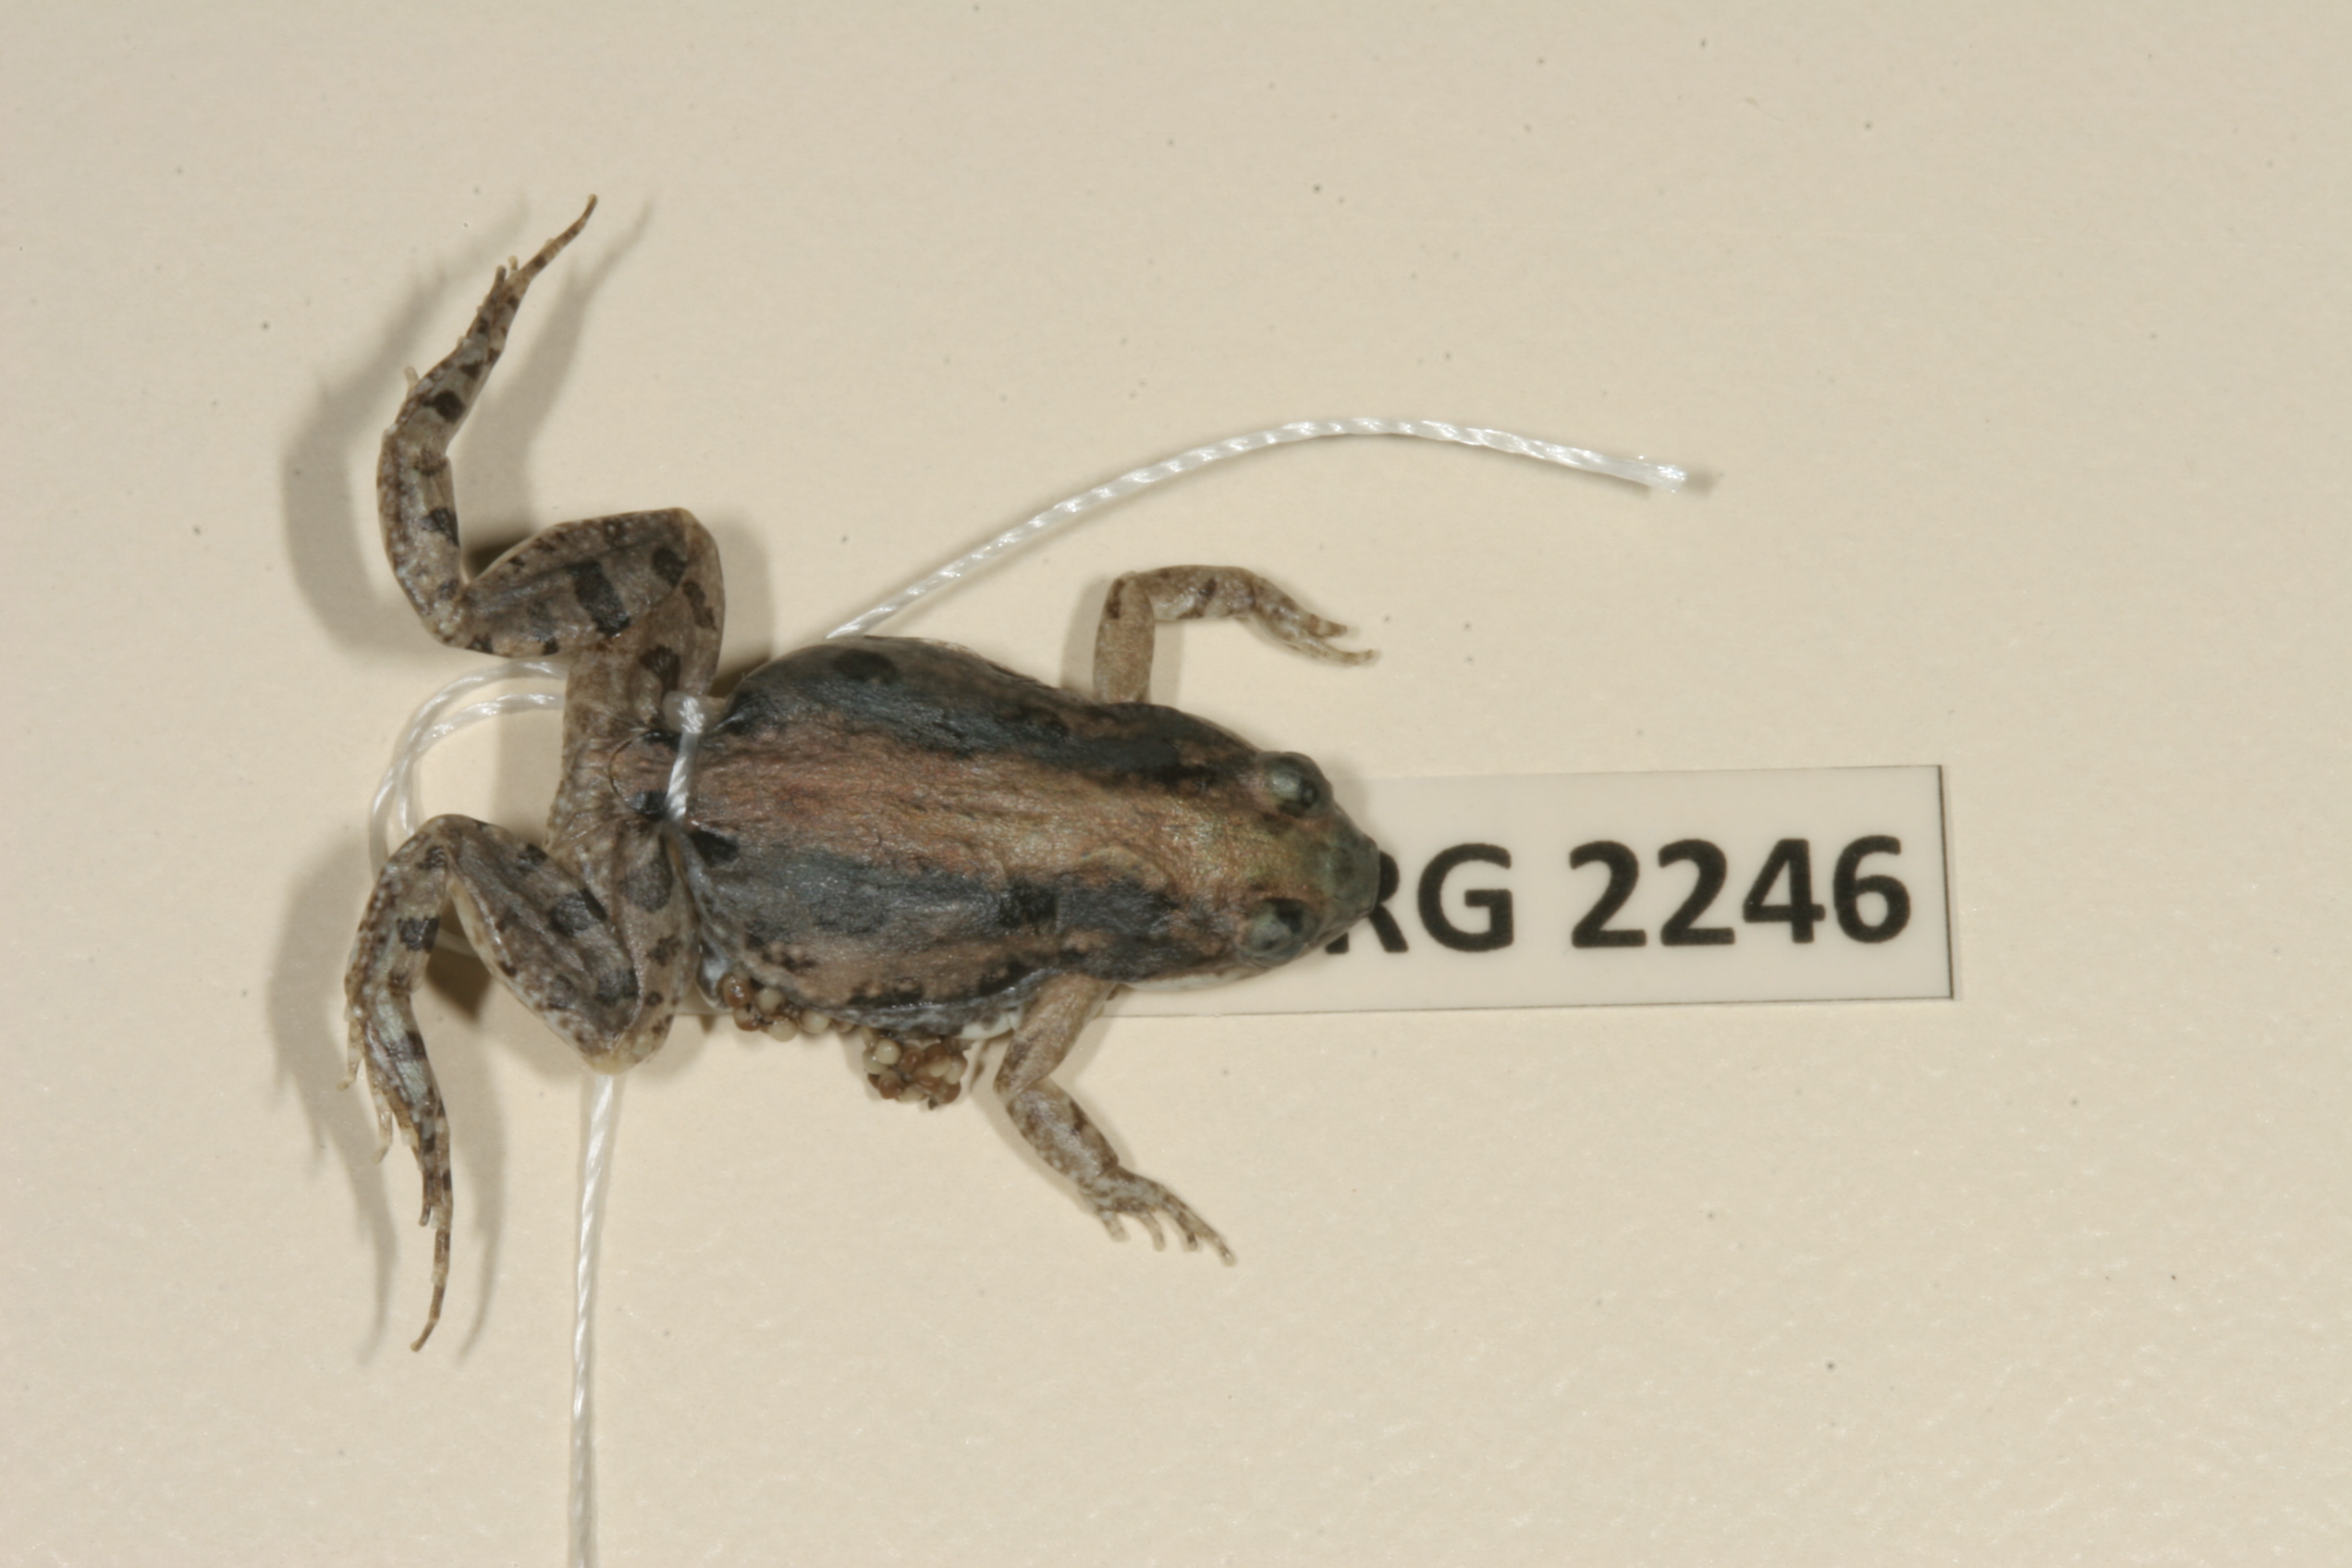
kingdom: Animalia
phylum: Chordata
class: Amphibia
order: Anura
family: Pyxicephalidae
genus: Cacosternum
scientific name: Cacosternum boettgeri
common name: Boettger's frog
